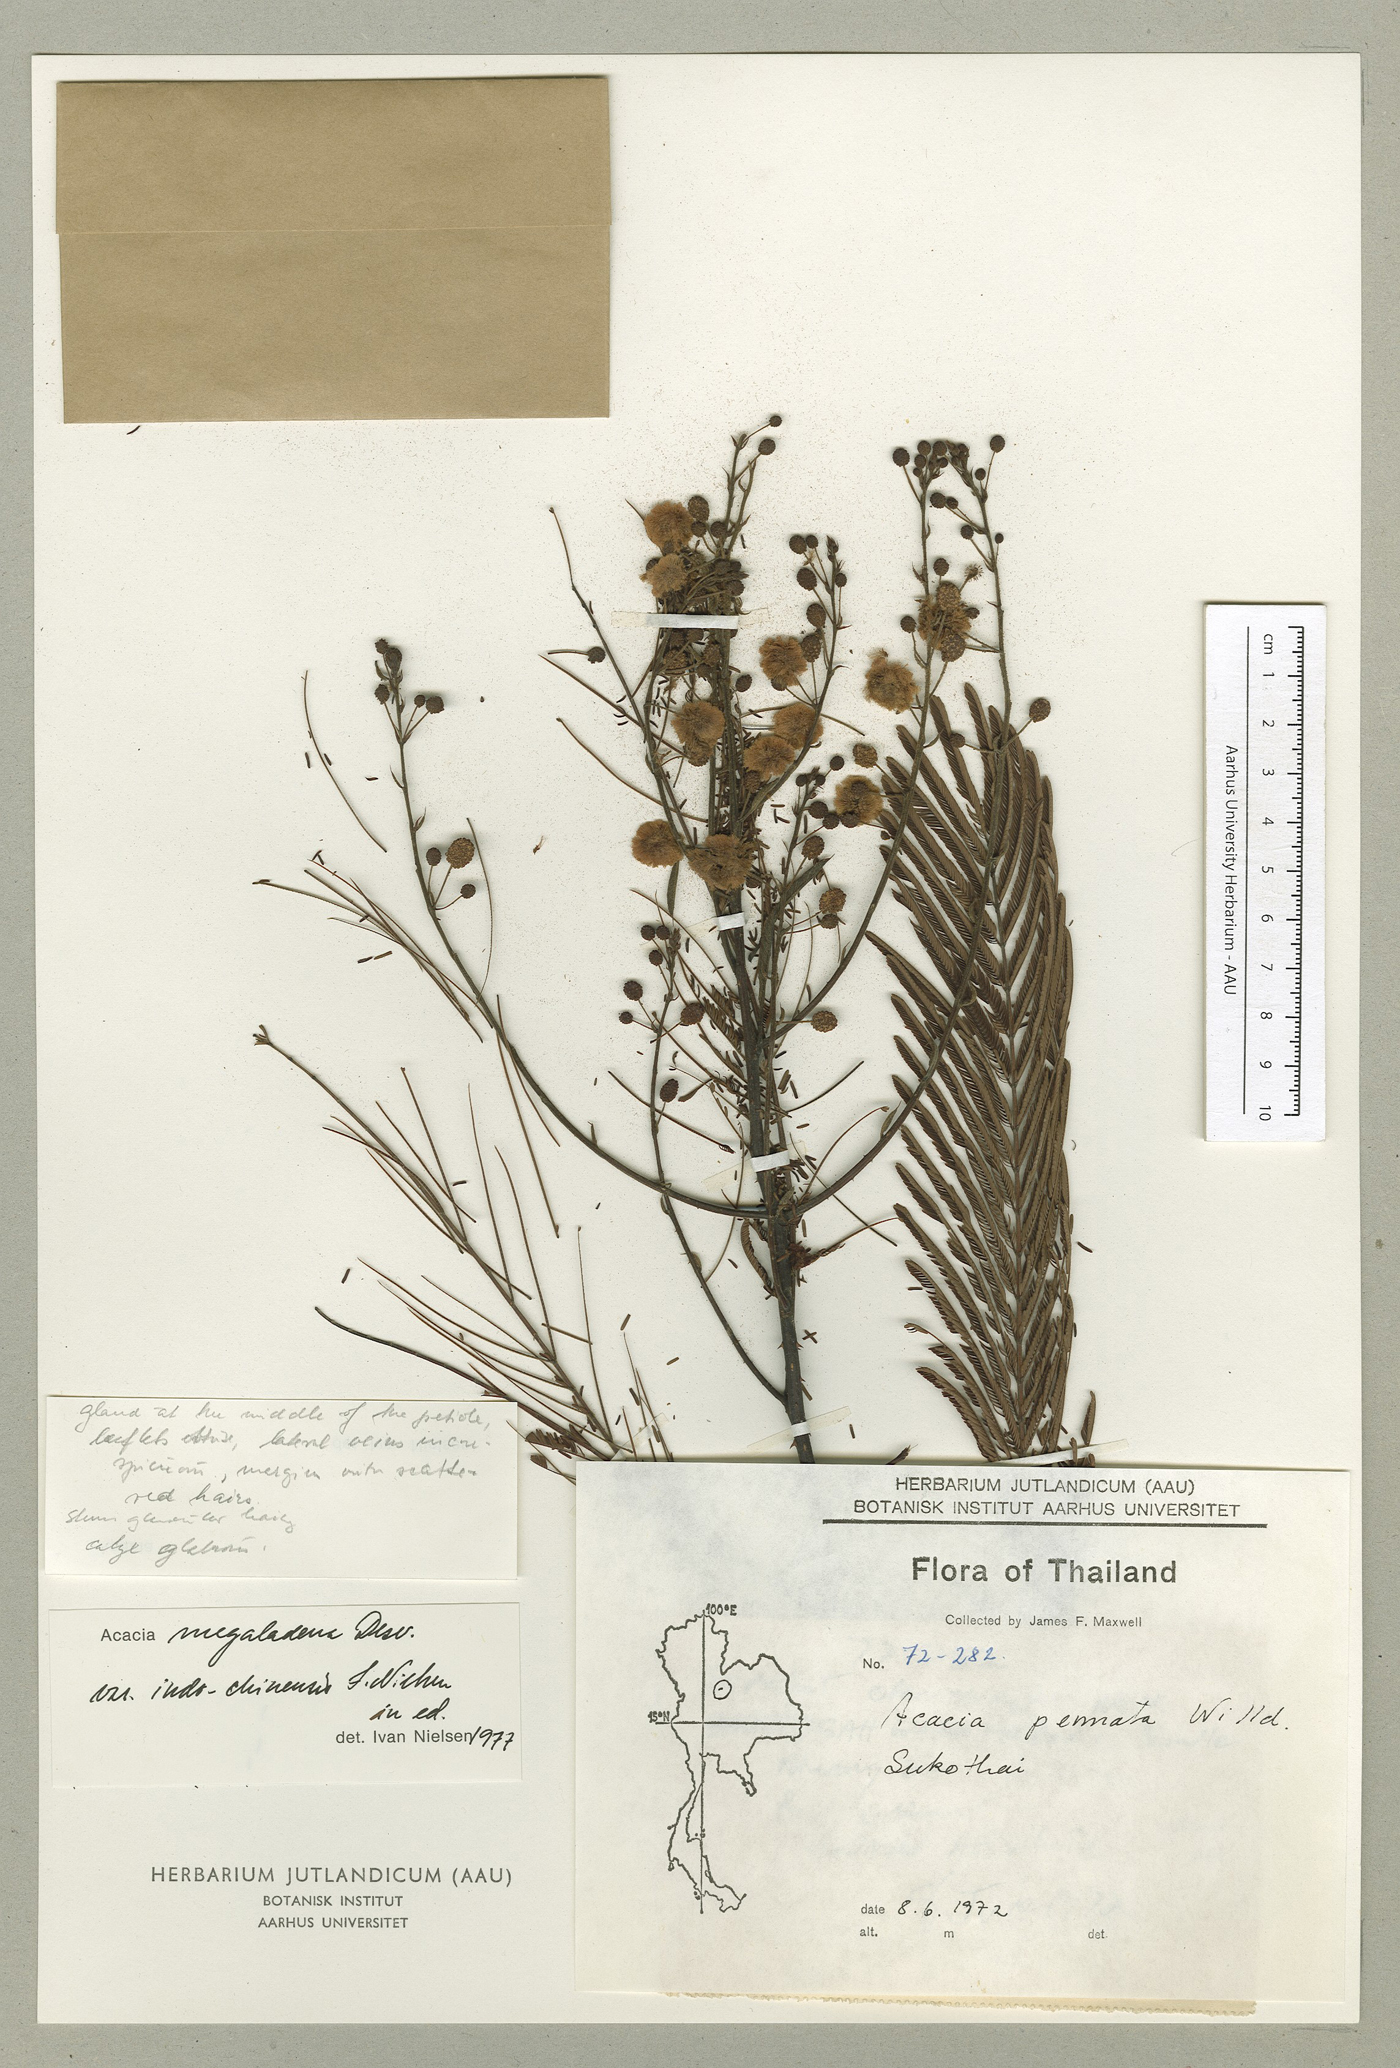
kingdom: Plantae
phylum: Tracheophyta
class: Magnoliopsida
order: Fabales
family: Fabaceae
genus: Senegalia
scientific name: Senegalia megaladena
